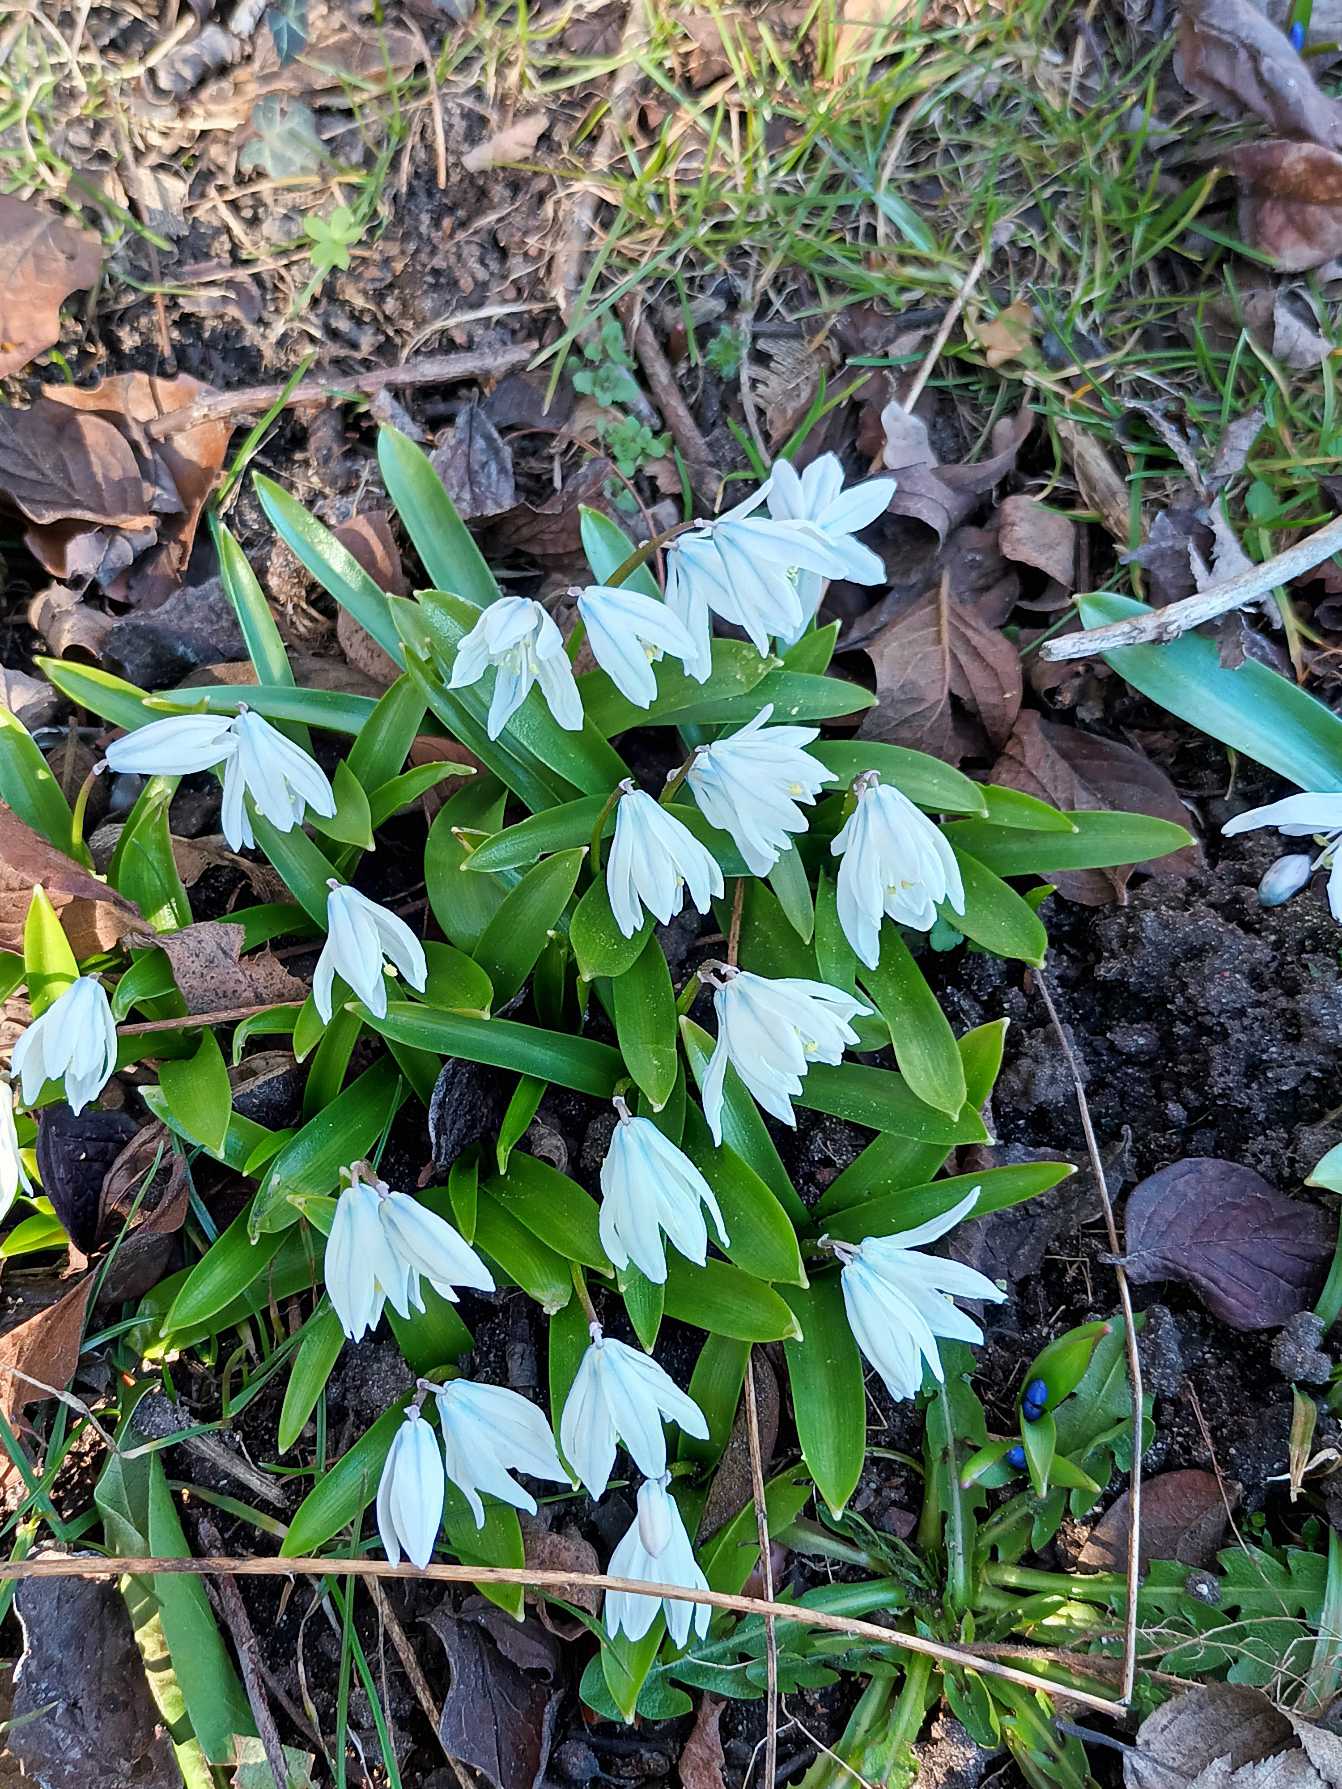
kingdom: Plantae
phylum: Tracheophyta
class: Liliopsida
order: Asparagales
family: Asparagaceae
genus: Scilla
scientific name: Scilla mischtschenkoana
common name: Persisk skilla
